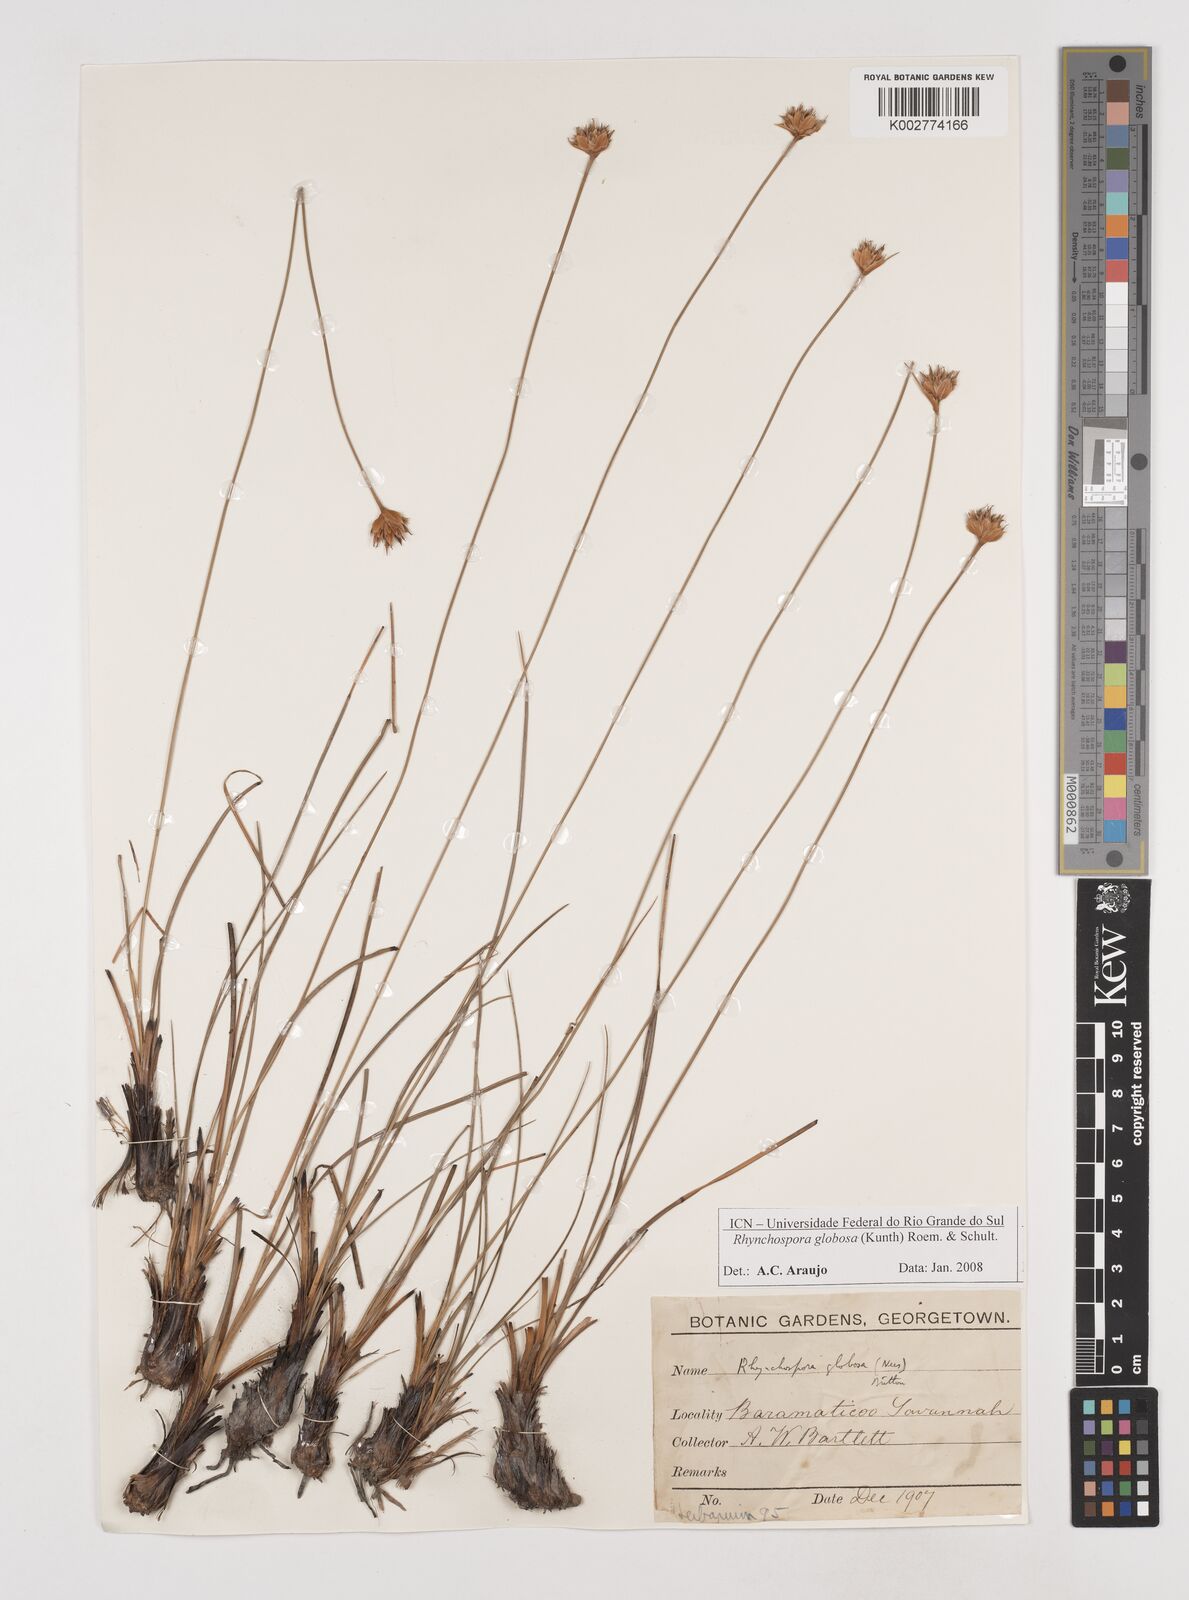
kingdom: Plantae
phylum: Tracheophyta
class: Liliopsida
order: Poales
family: Cyperaceae
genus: Rhynchospora
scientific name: Rhynchospora globosa
